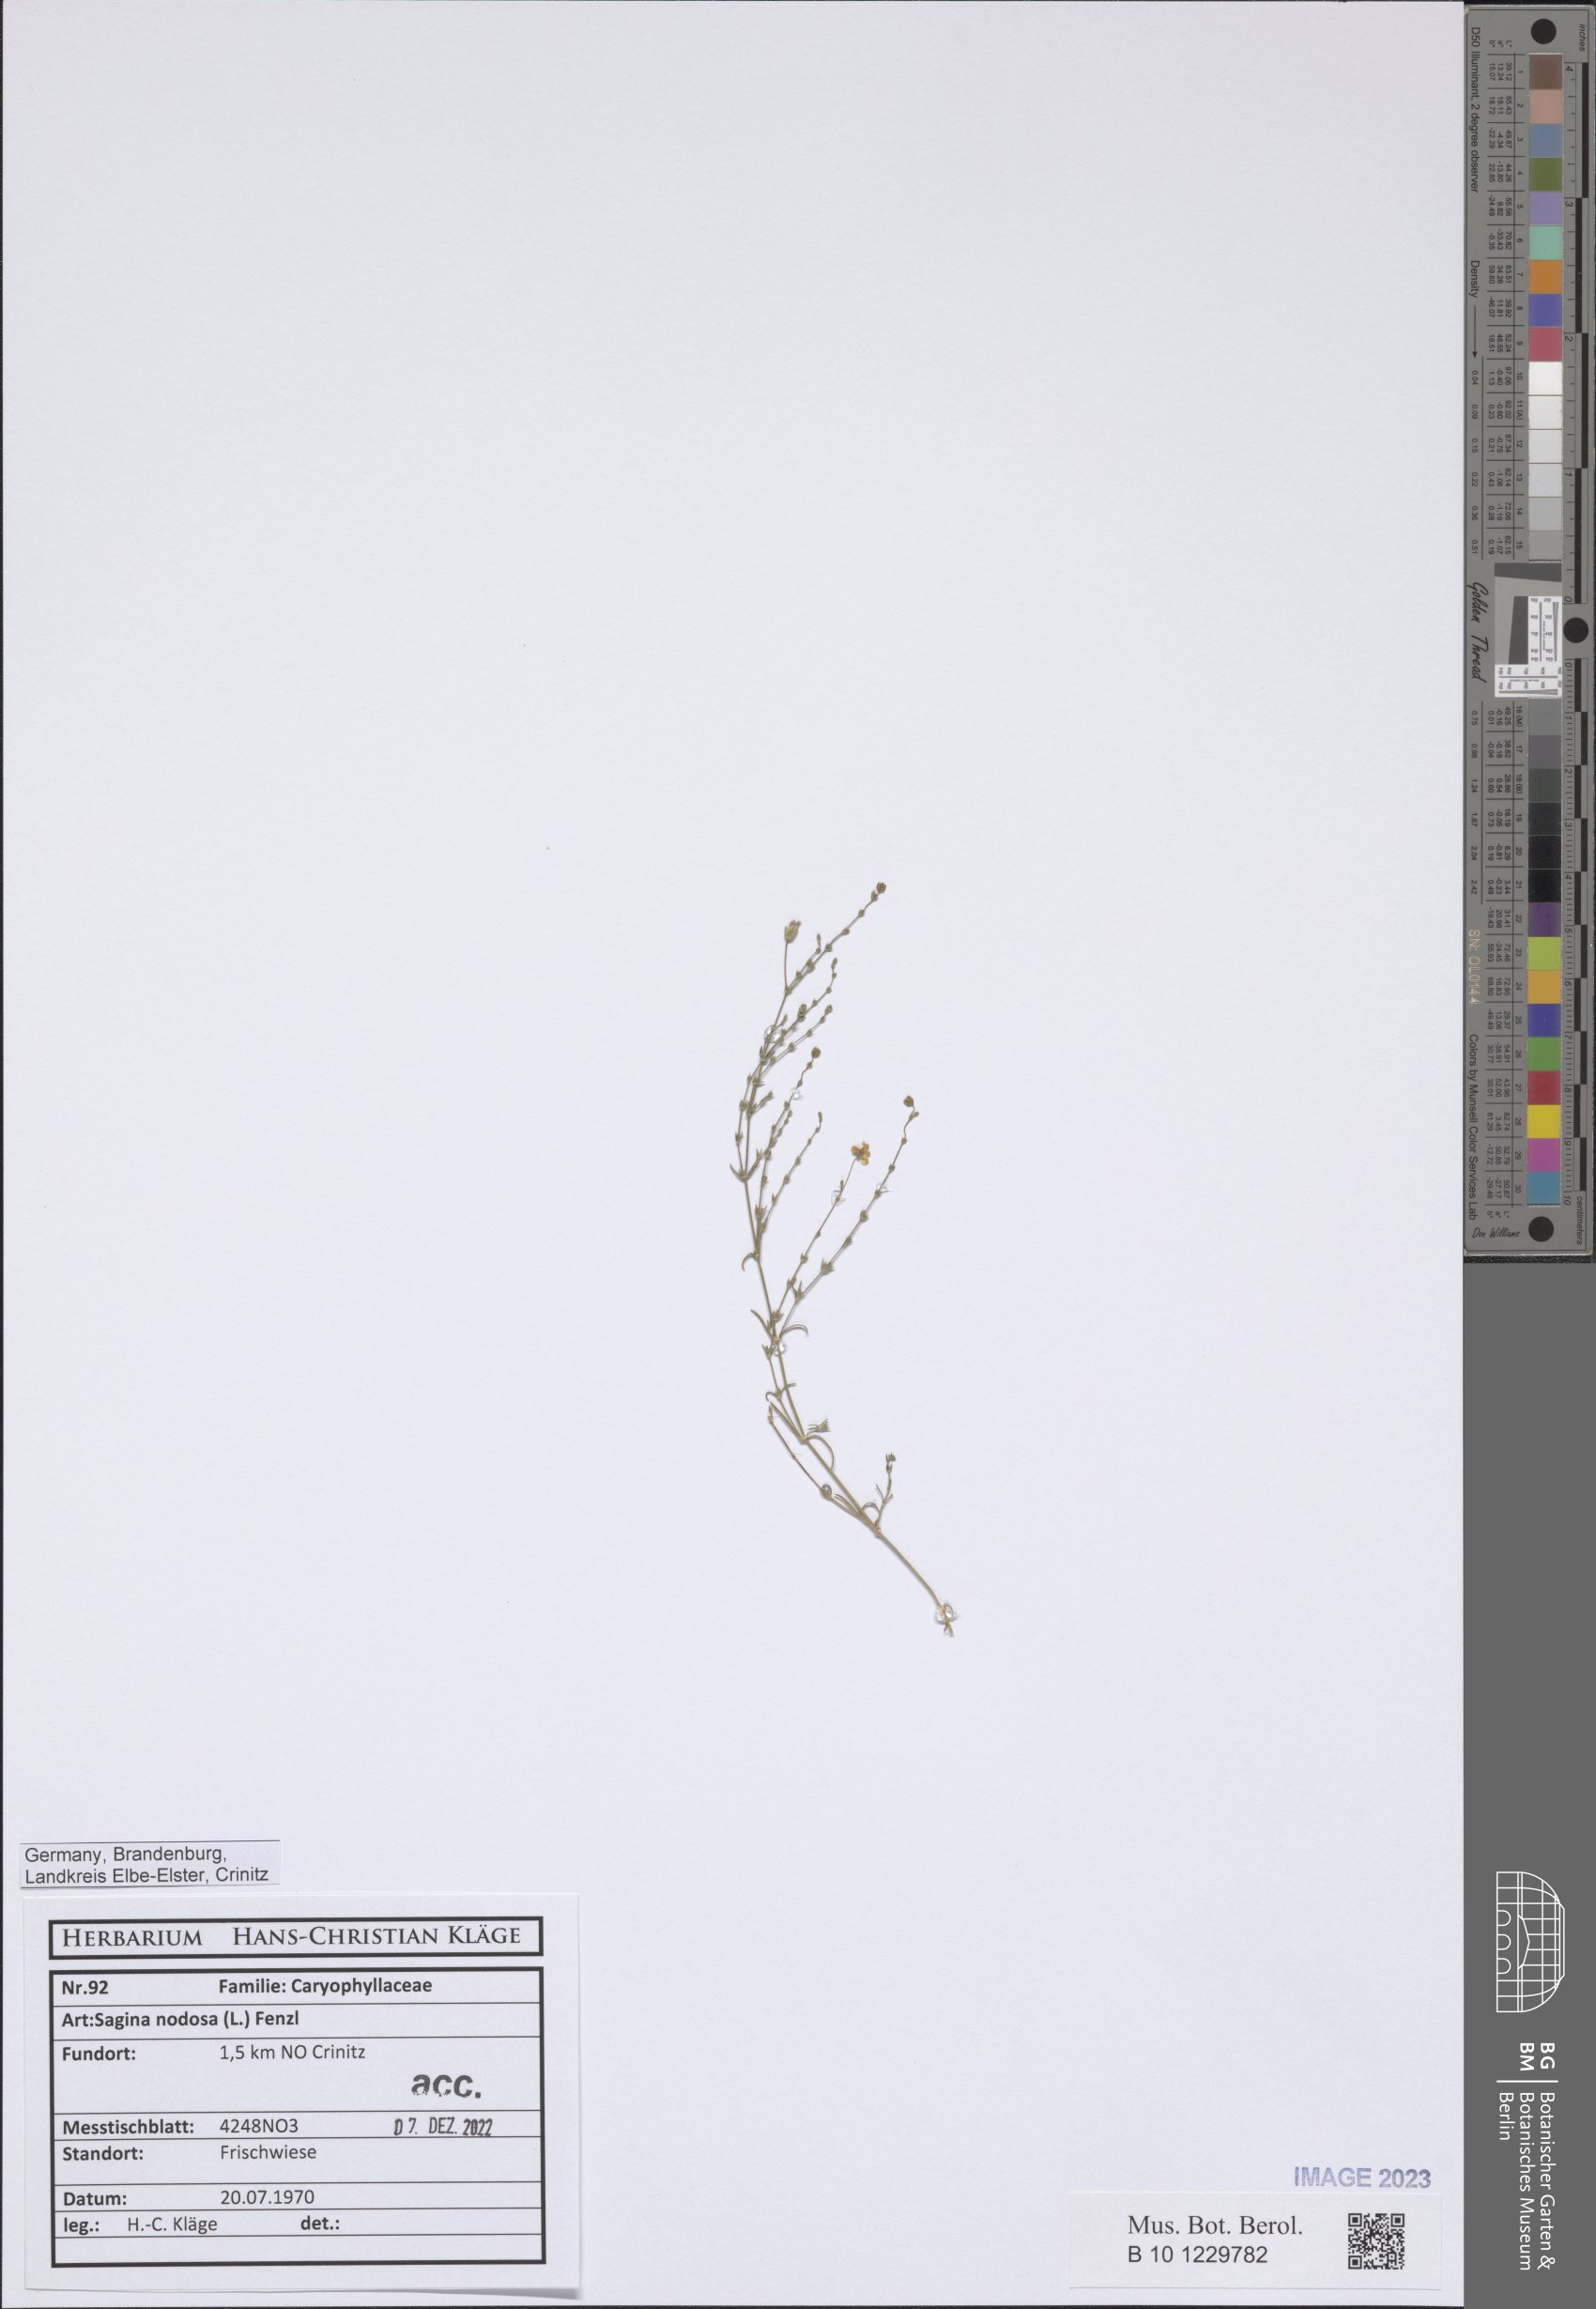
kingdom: Plantae
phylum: Tracheophyta
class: Magnoliopsida
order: Caryophyllales
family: Caryophyllaceae
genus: Sagina
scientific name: Sagina nodosa
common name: Knotted pearlwort
